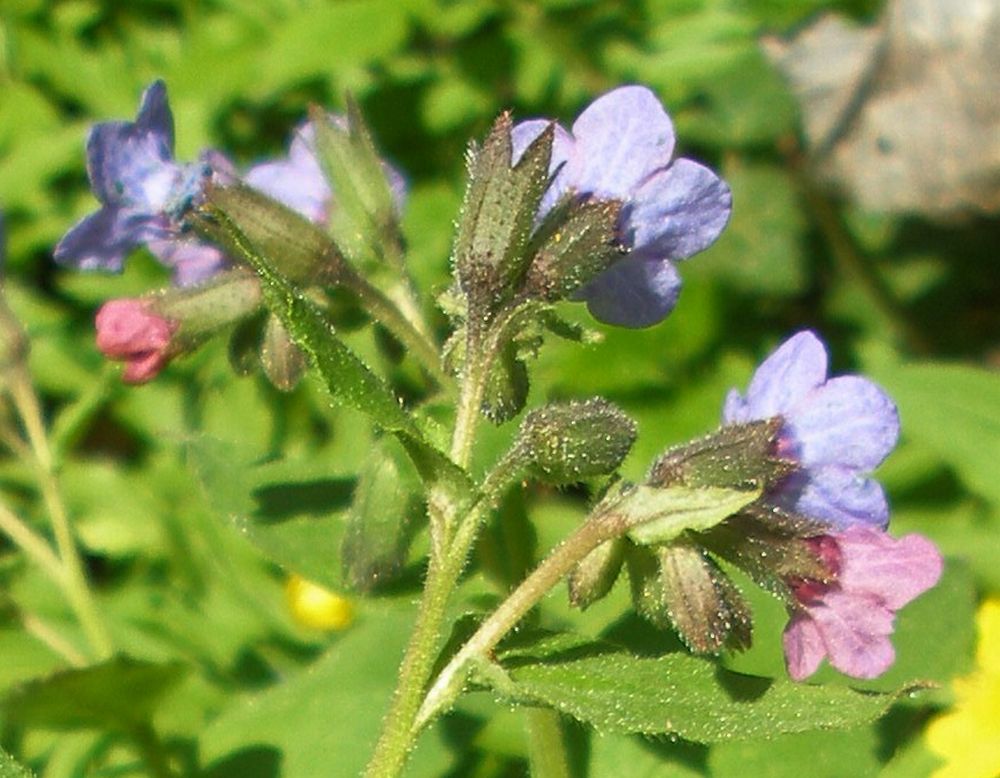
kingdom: Plantae
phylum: Tracheophyta
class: Magnoliopsida
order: Boraginales
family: Boraginaceae
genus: Pulmonaria
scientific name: Pulmonaria obscura
